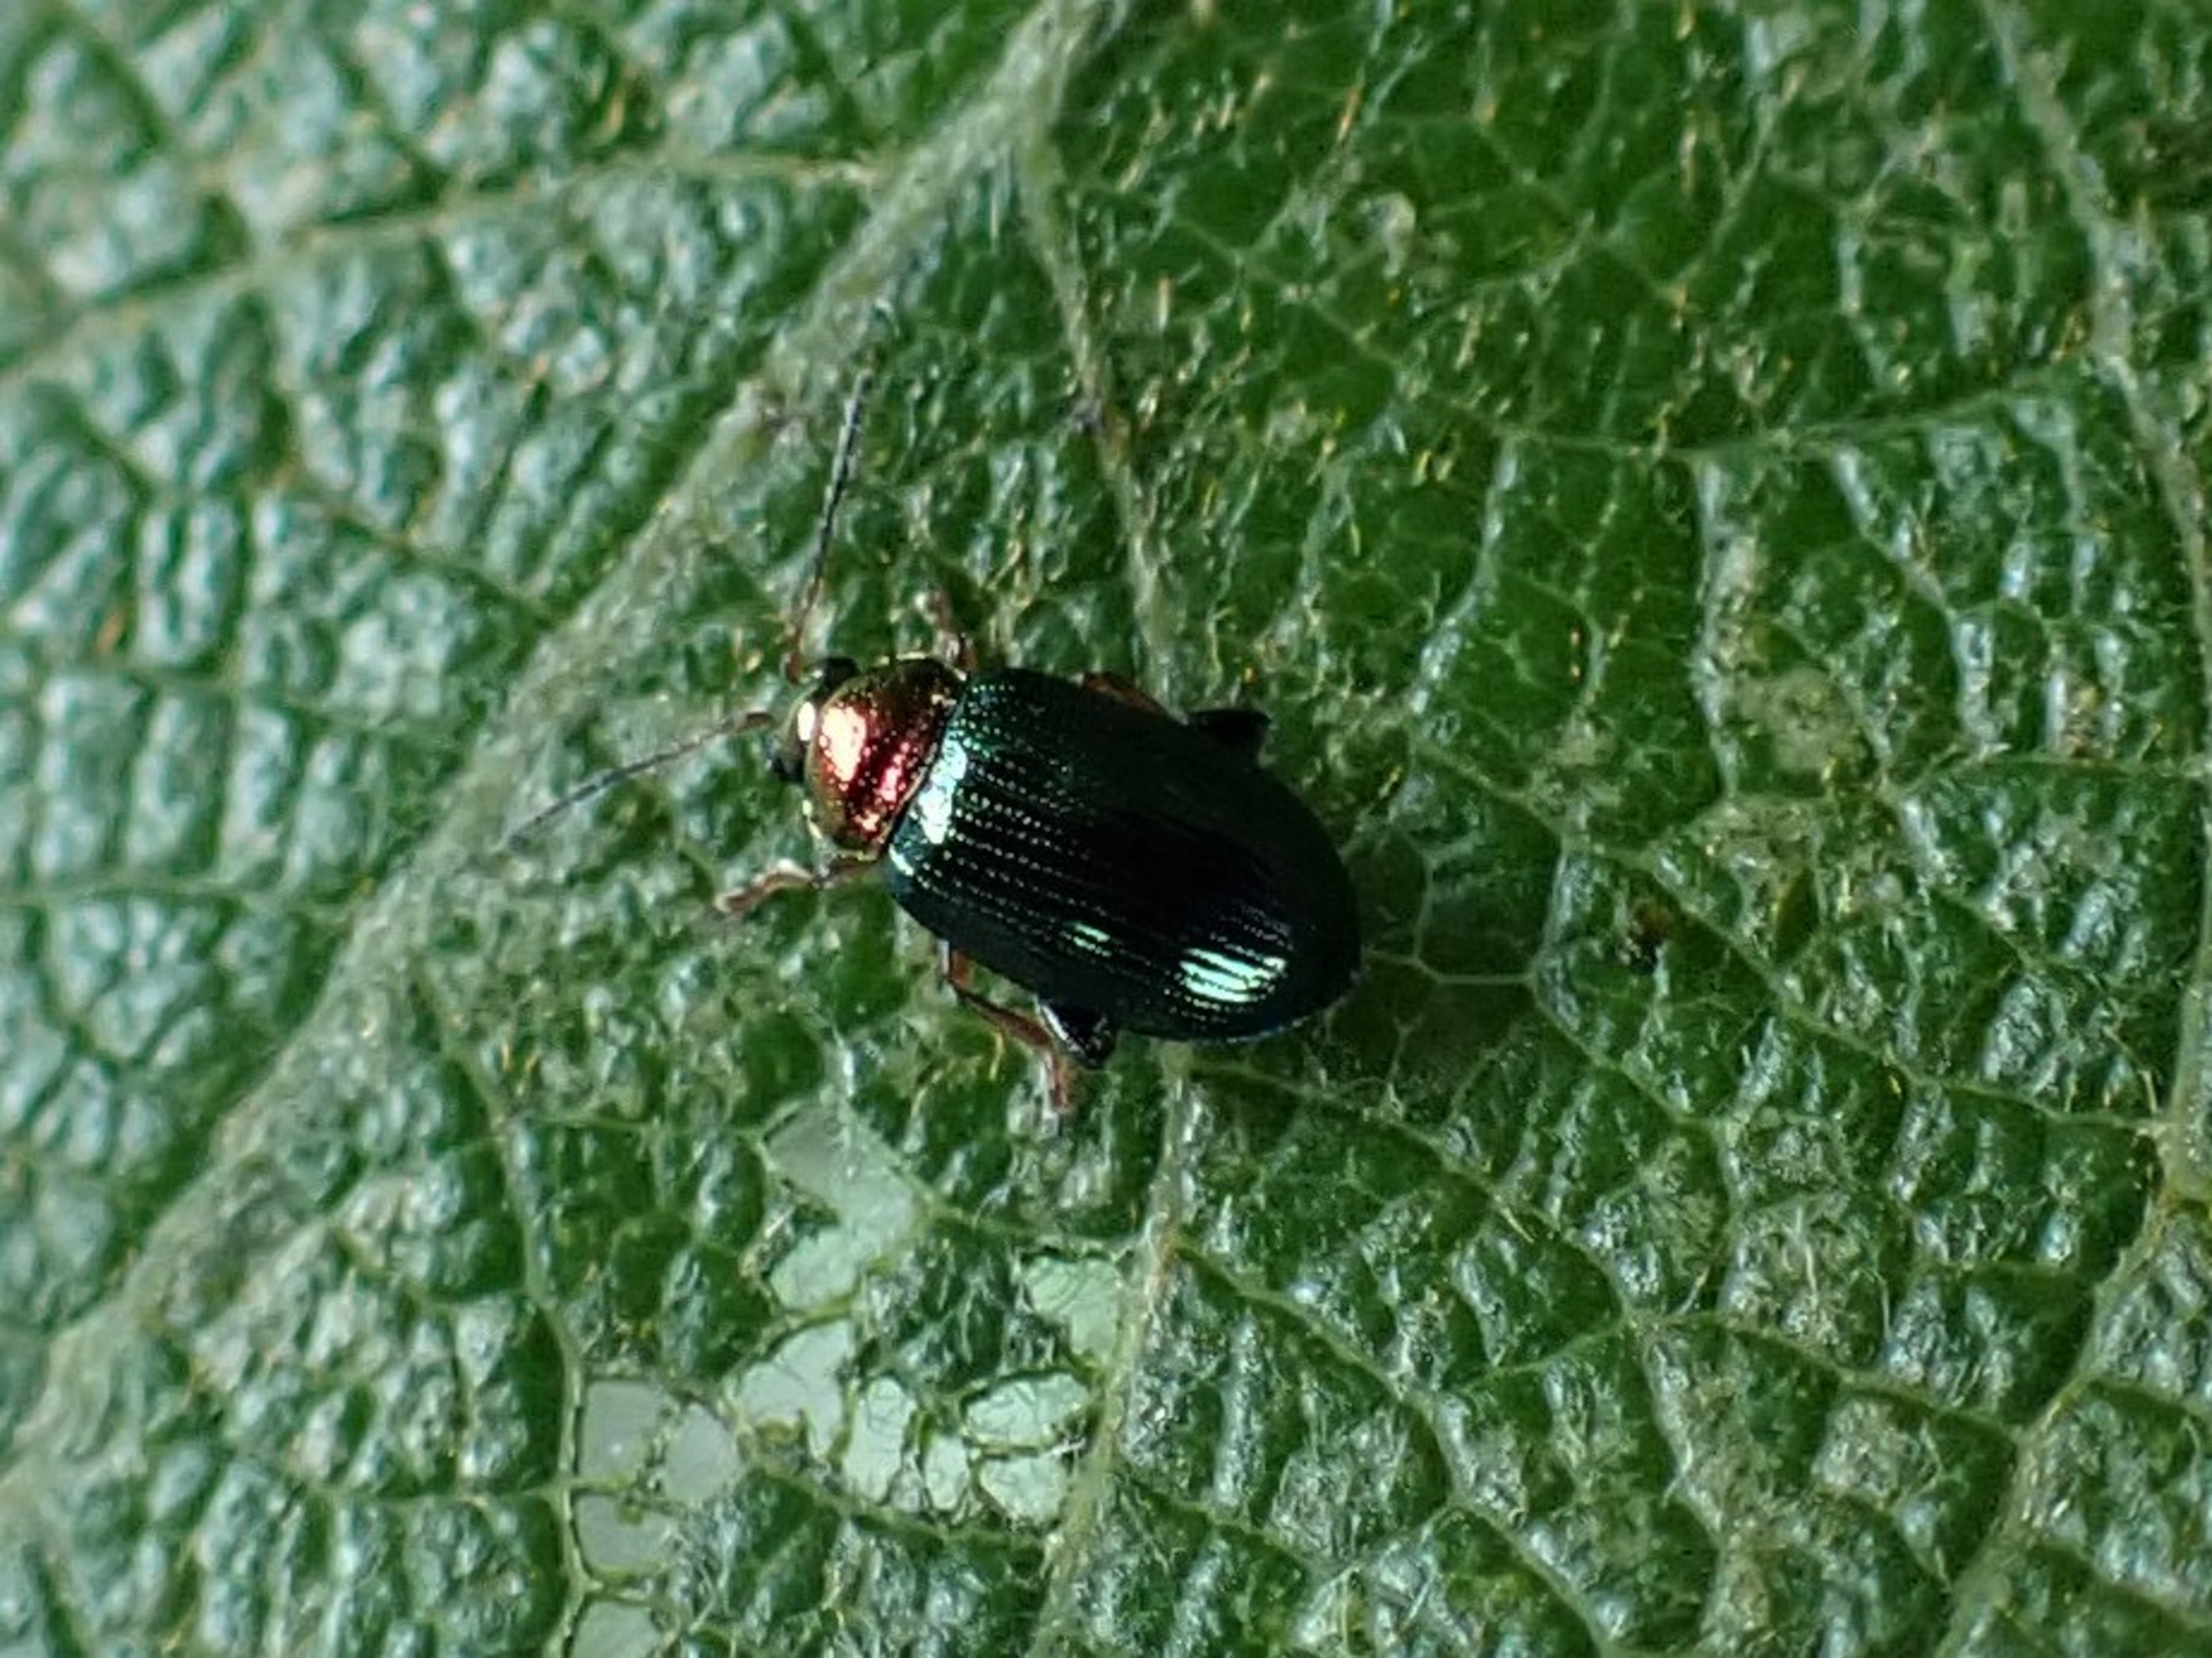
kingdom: Animalia
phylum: Arthropoda
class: Insecta
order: Coleoptera
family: Chrysomelidae
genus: Crepidodera
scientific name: Crepidodera aurata
